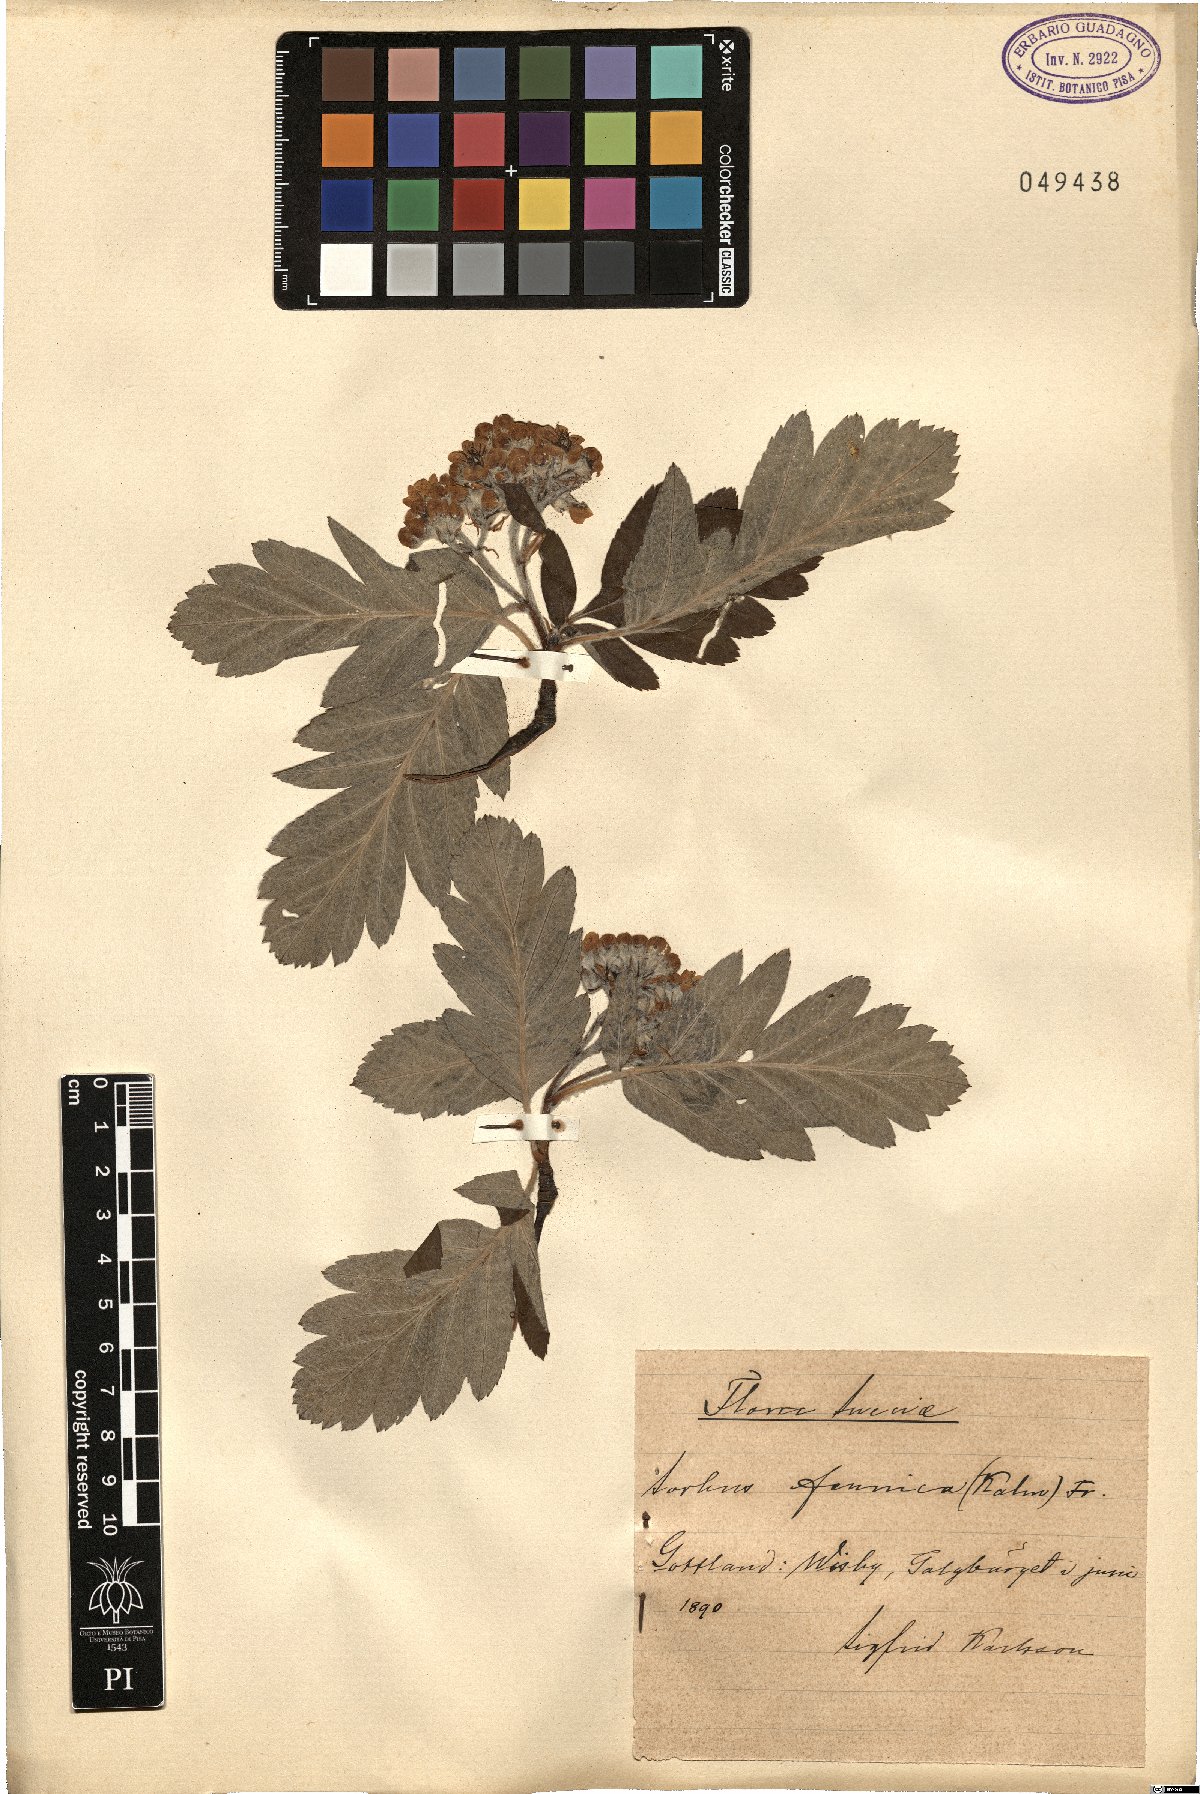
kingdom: Plantae
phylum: Tracheophyta
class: Magnoliopsida
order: Rosales
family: Rosaceae
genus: Hedlundia
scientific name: Hedlundia hybrida
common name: Swedish service-tree
